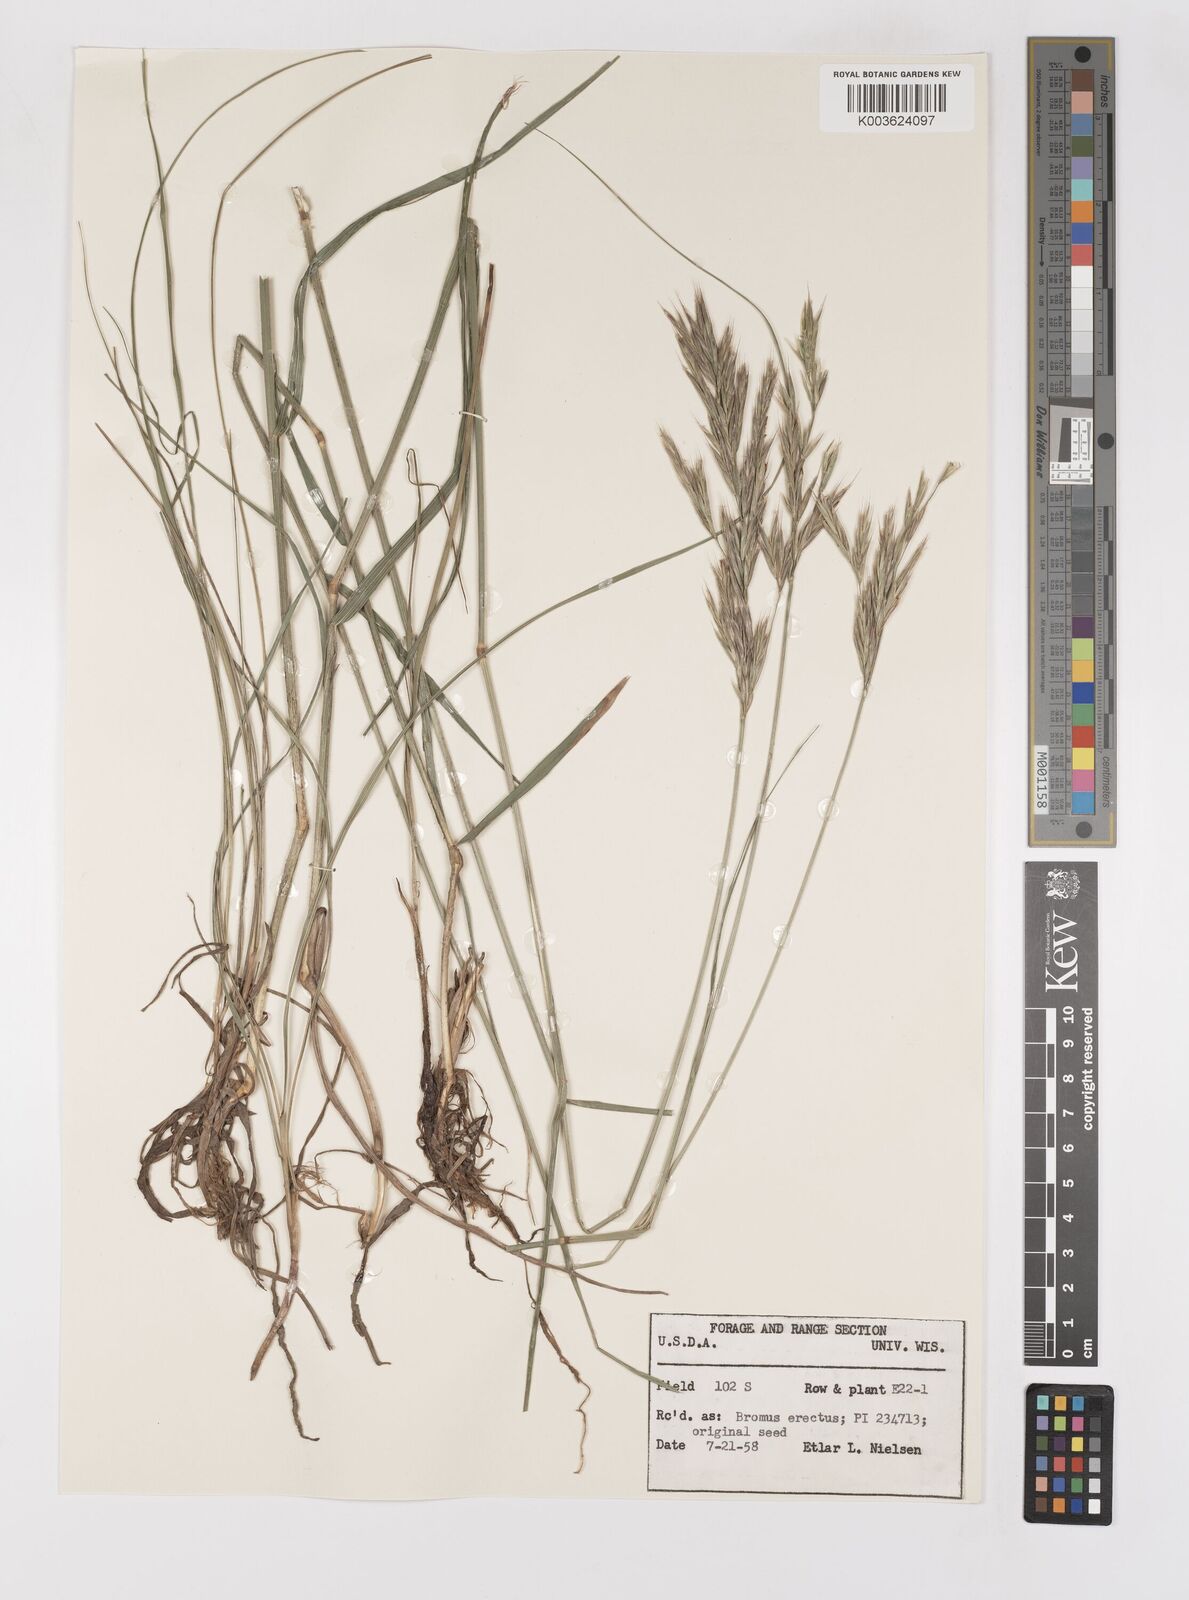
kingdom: Plantae
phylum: Tracheophyta
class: Liliopsida
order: Poales
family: Poaceae
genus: Bromus
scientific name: Bromus erectus
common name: Erect brome
